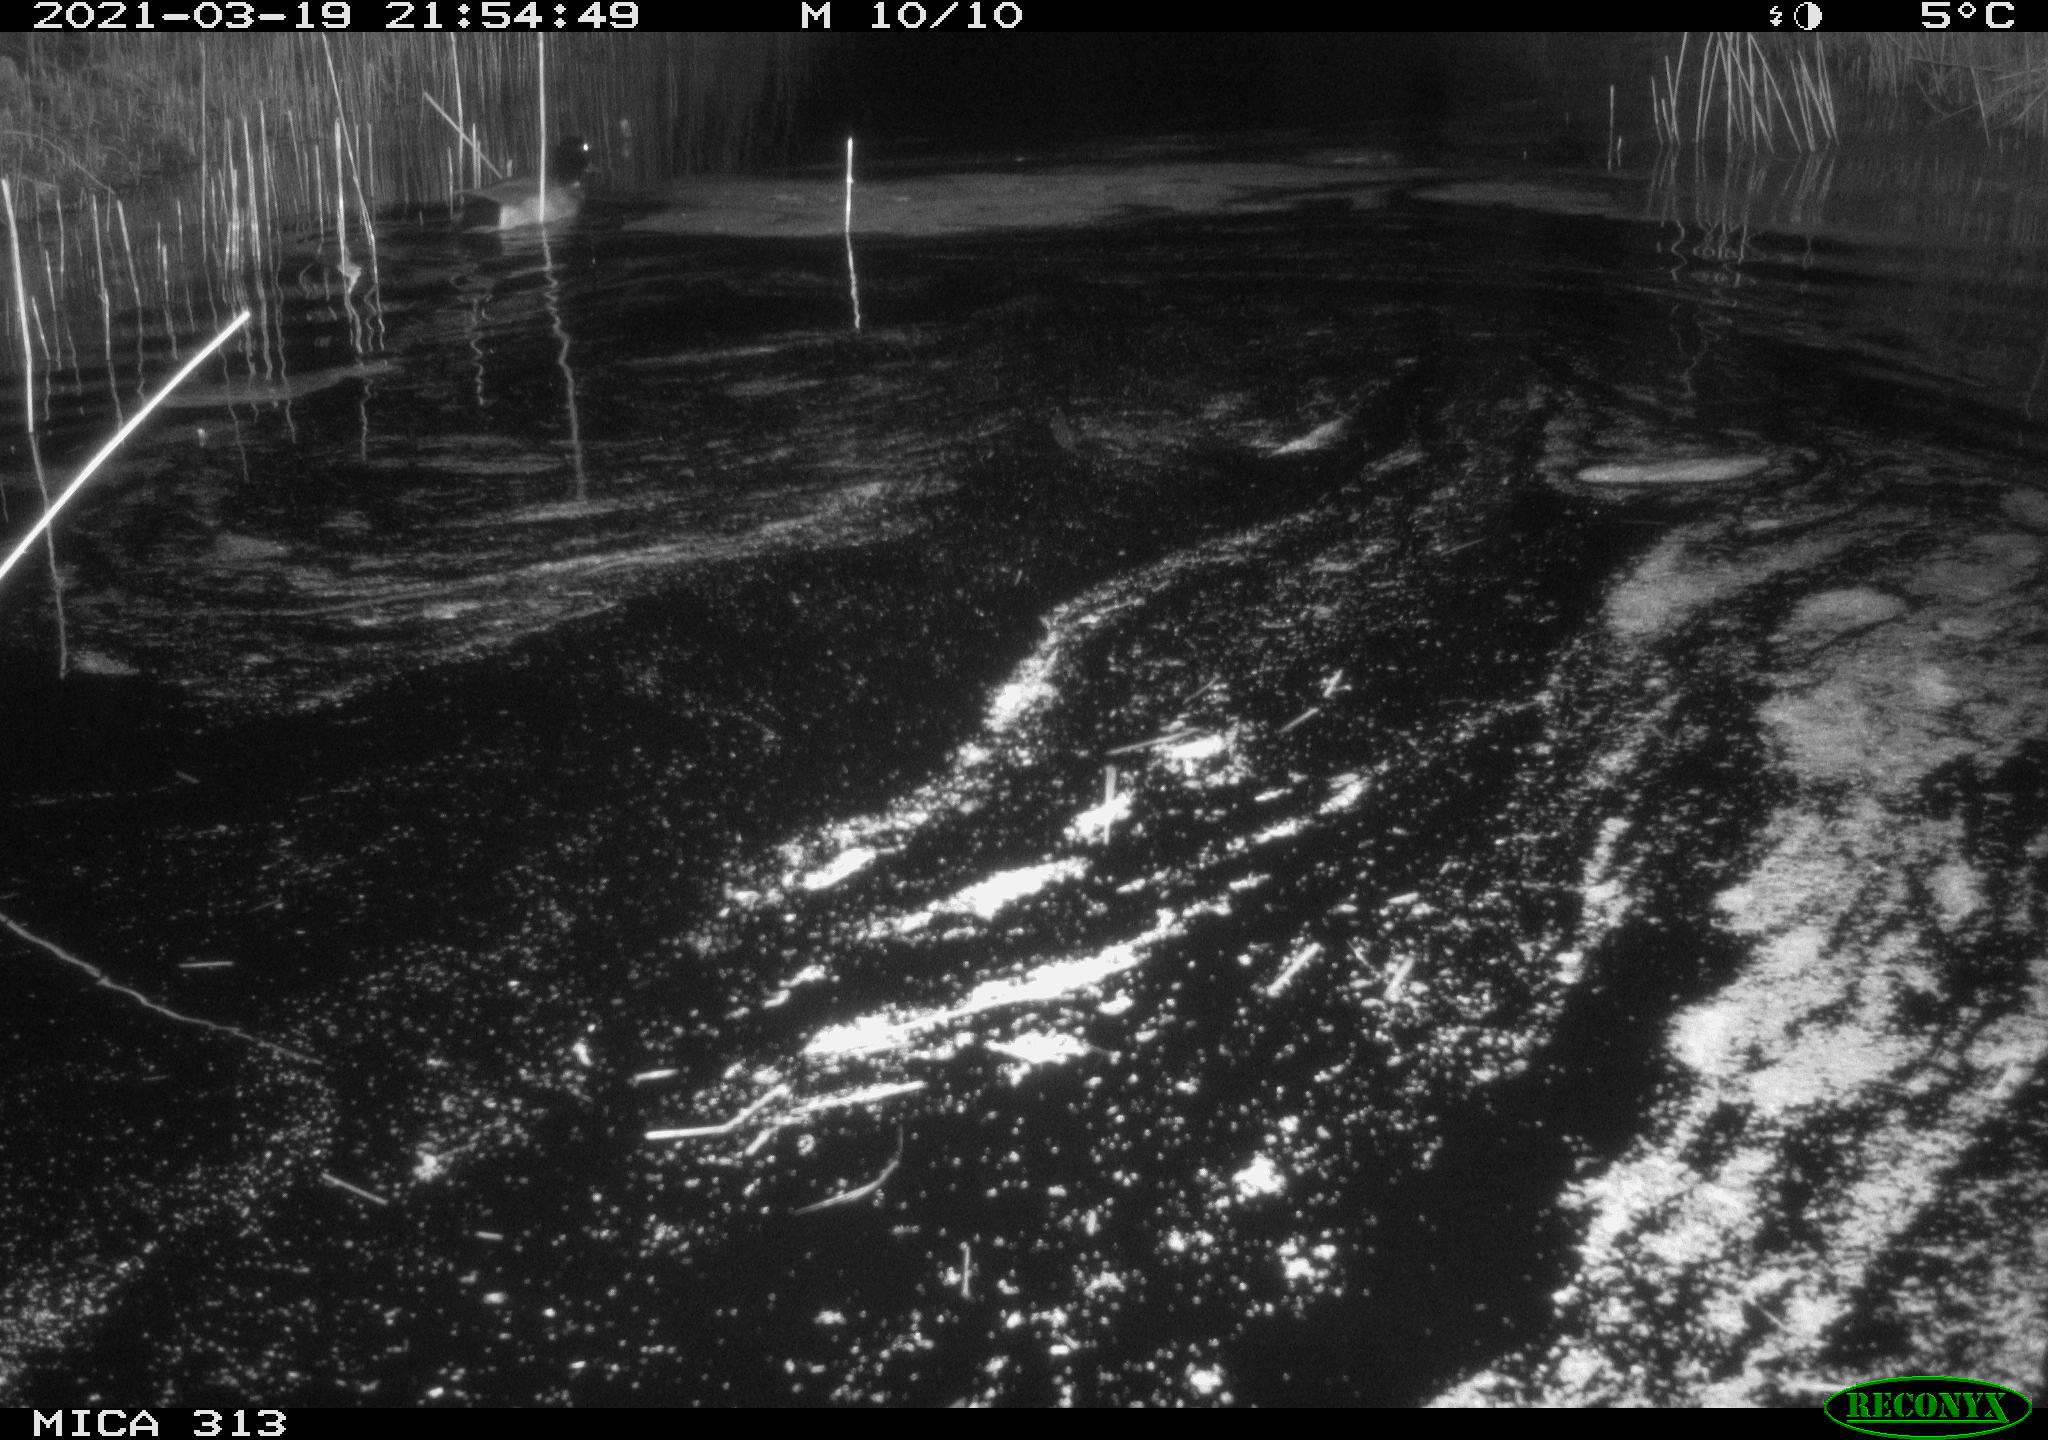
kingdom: Animalia
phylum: Chordata
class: Aves
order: Anseriformes
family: Anatidae
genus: Anas
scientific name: Anas platyrhynchos
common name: Mallard
